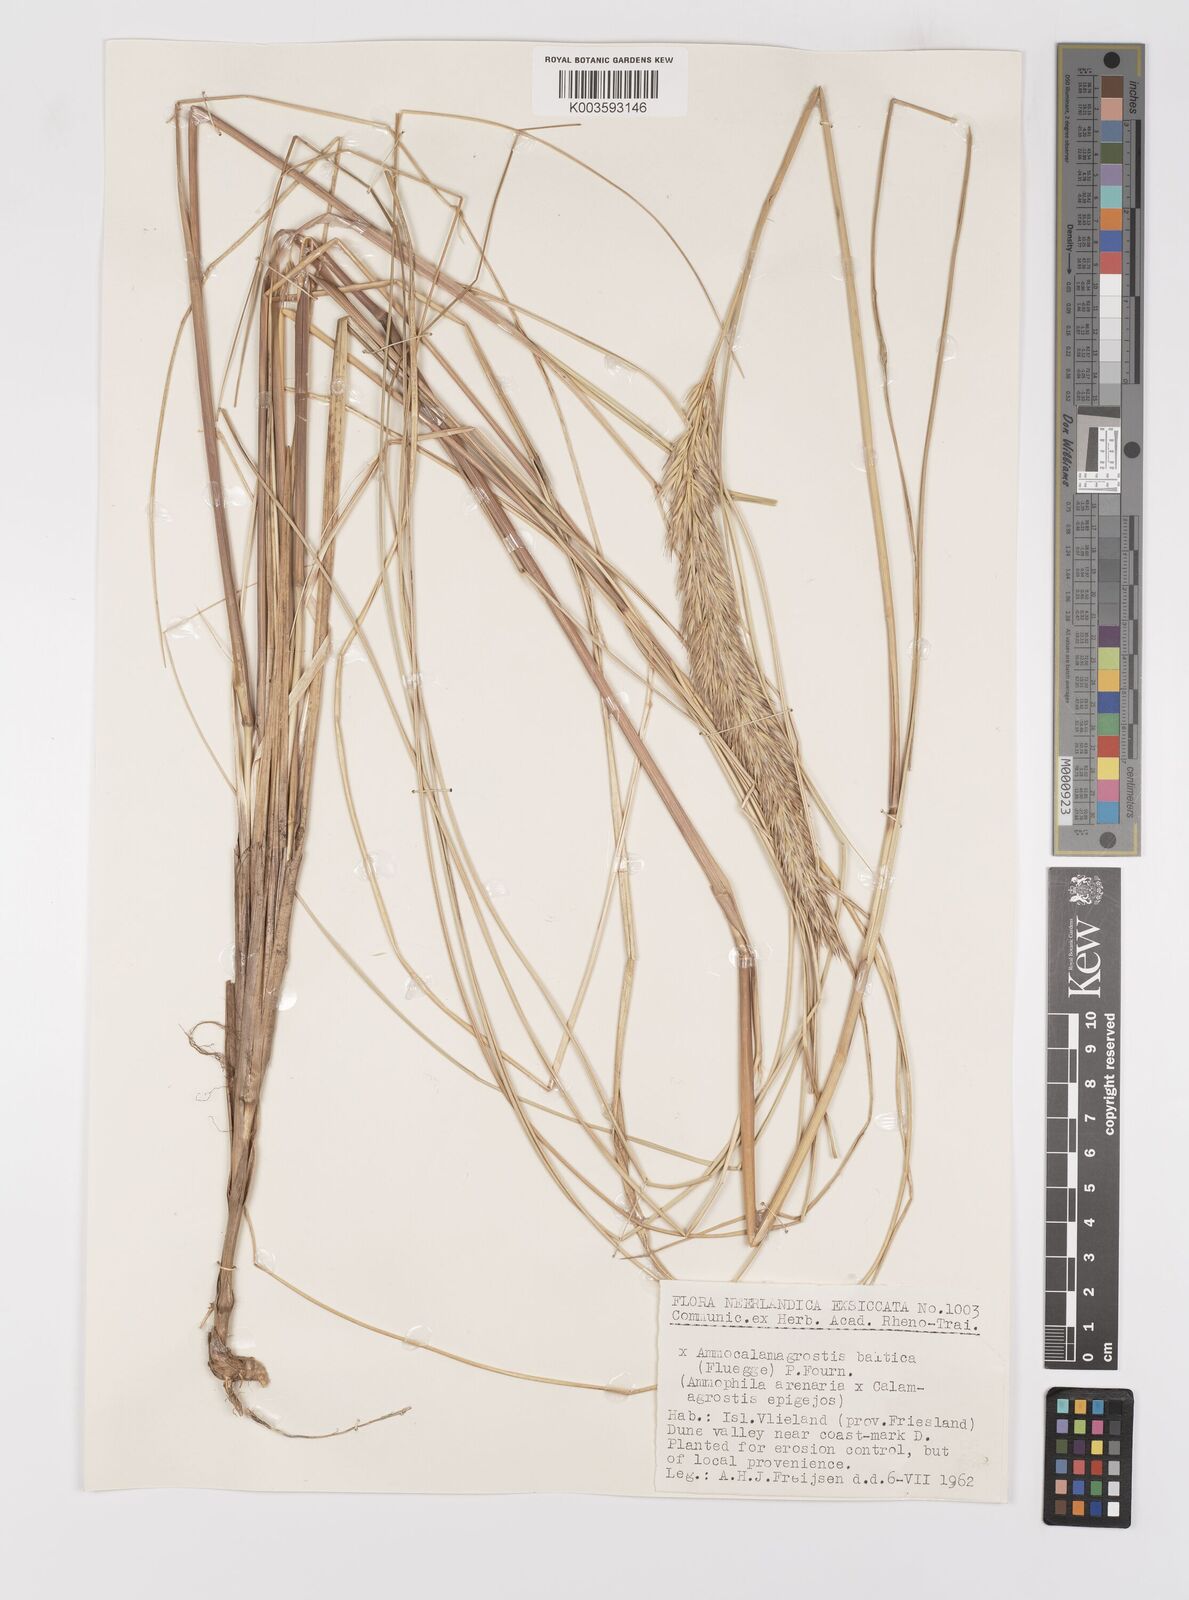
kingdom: Plantae
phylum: Tracheophyta
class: Liliopsida
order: Poales
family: Poaceae
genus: Calamagrostis
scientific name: Calamagrostis baltica
